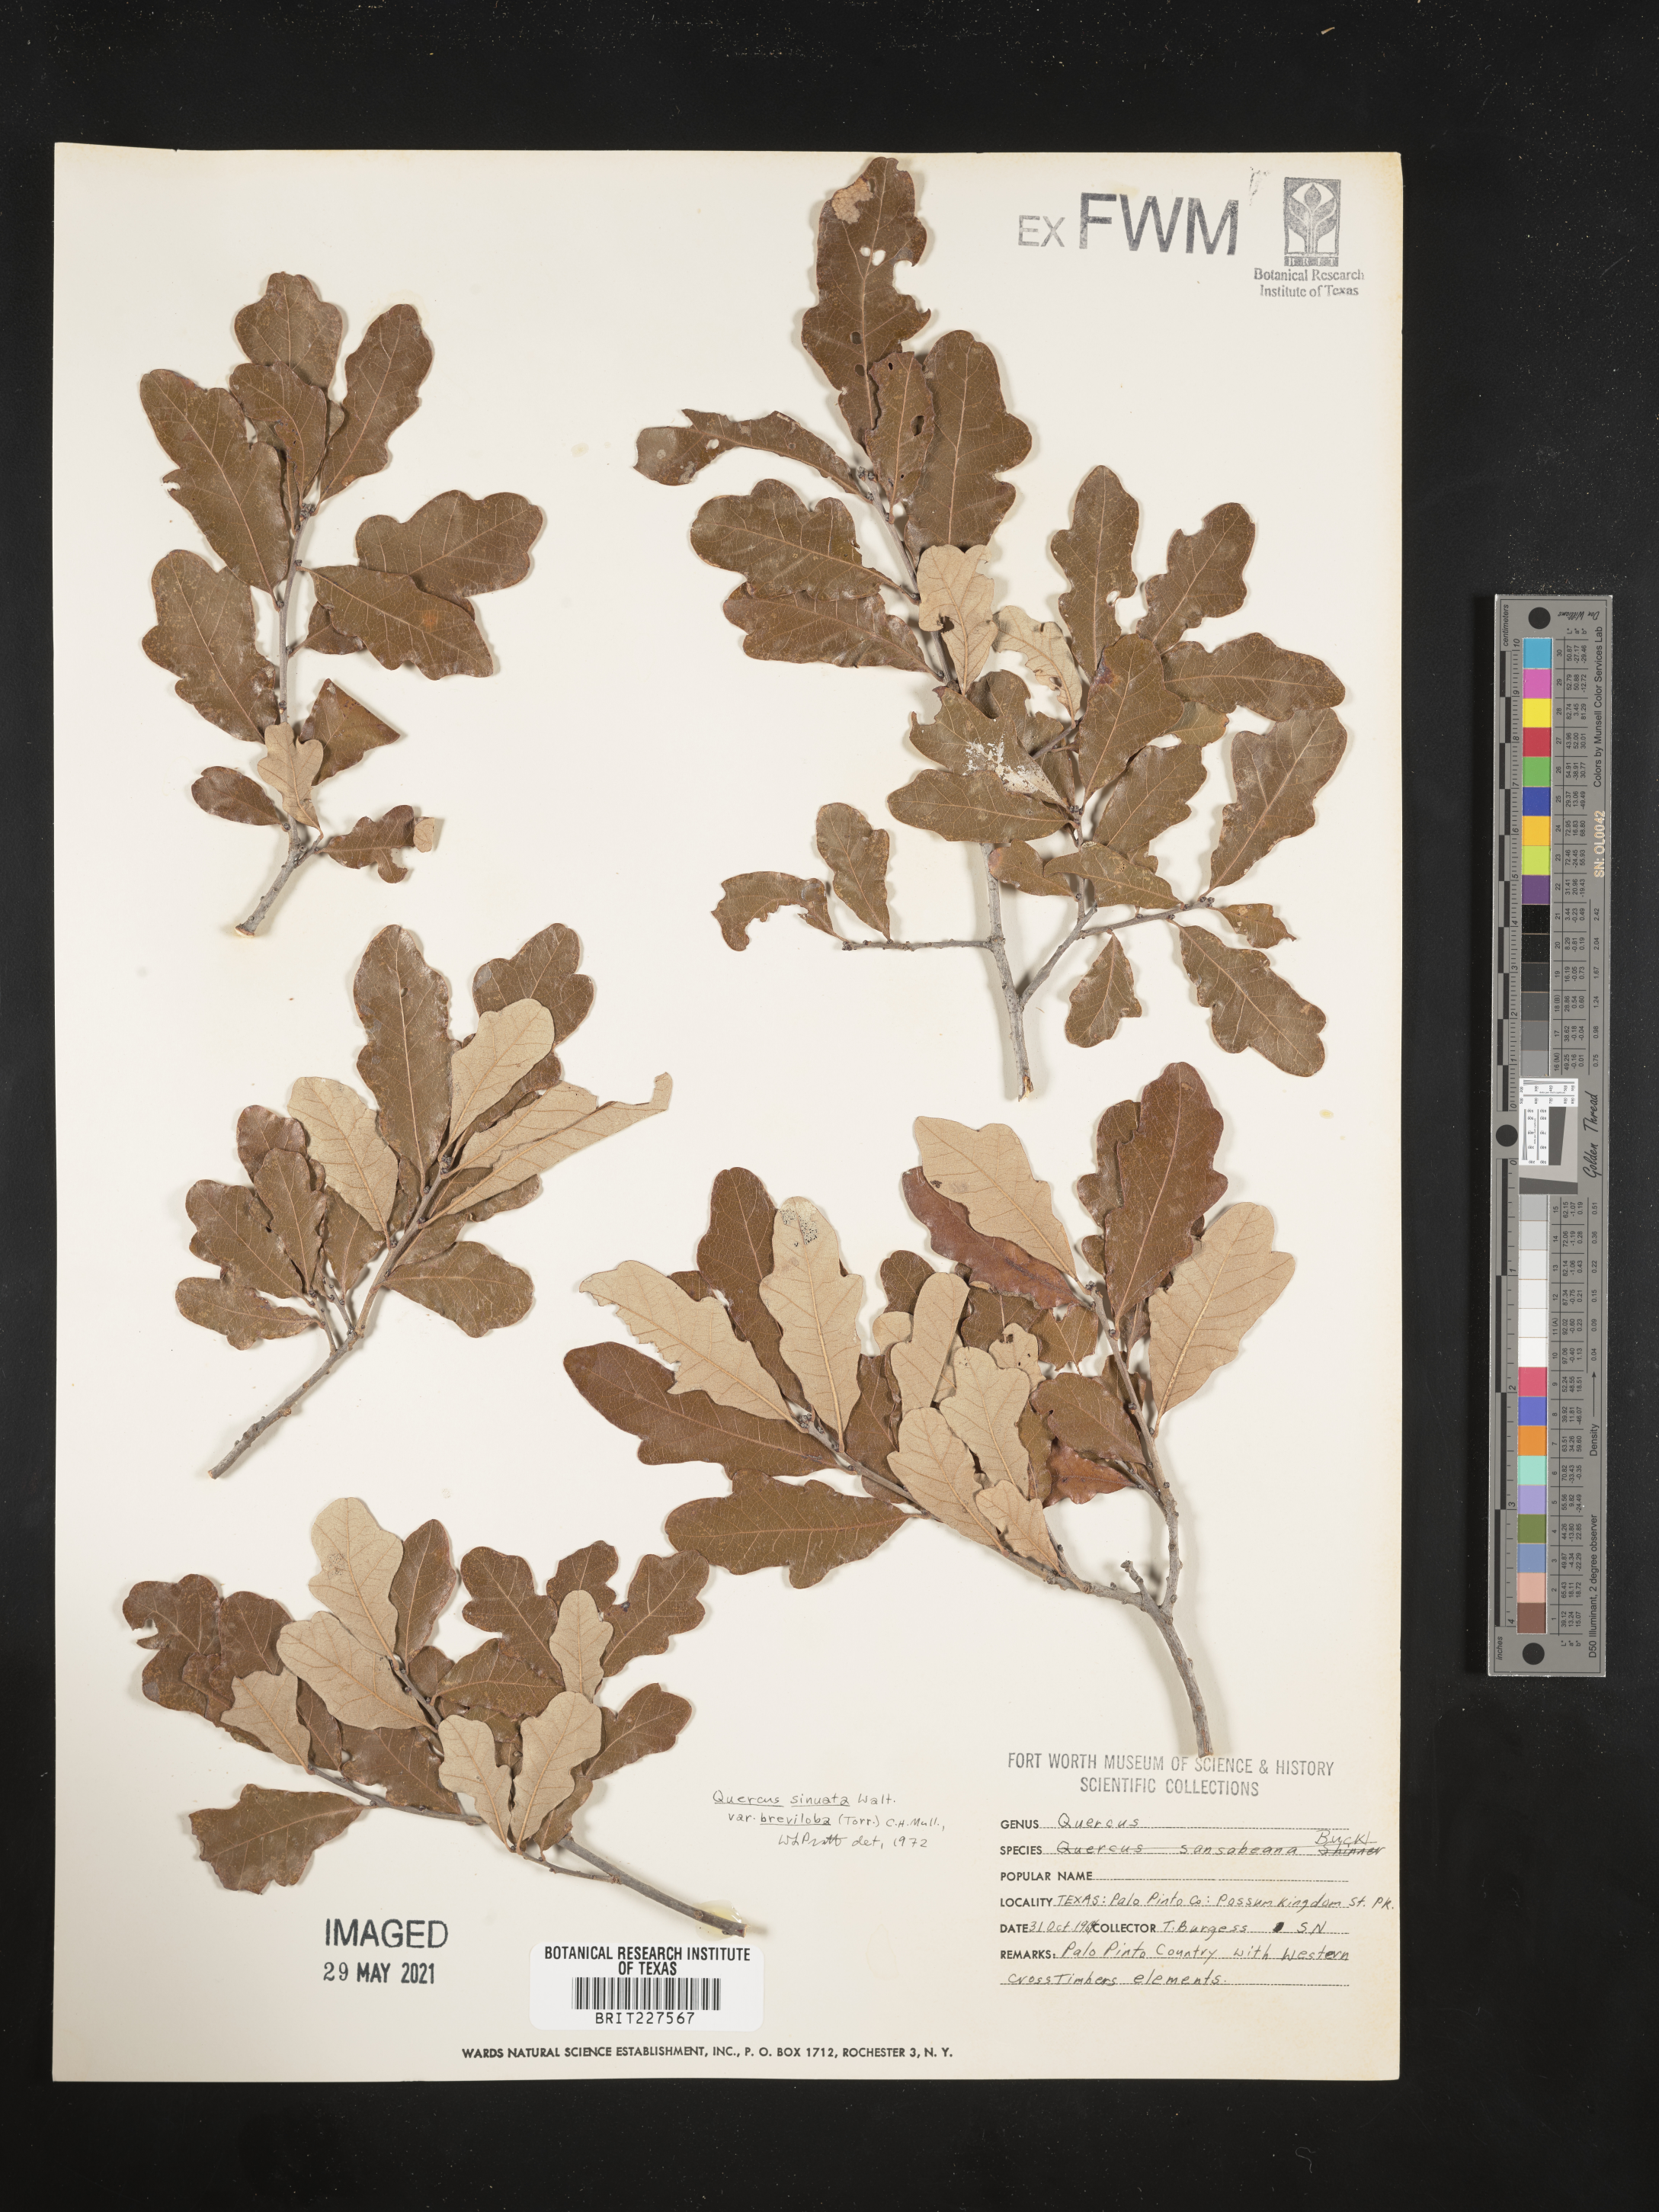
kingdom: Plantae
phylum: Tracheophyta
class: Magnoliopsida
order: Fagales
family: Fagaceae
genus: Quercus
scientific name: Quercus sinuata
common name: Durand oak
